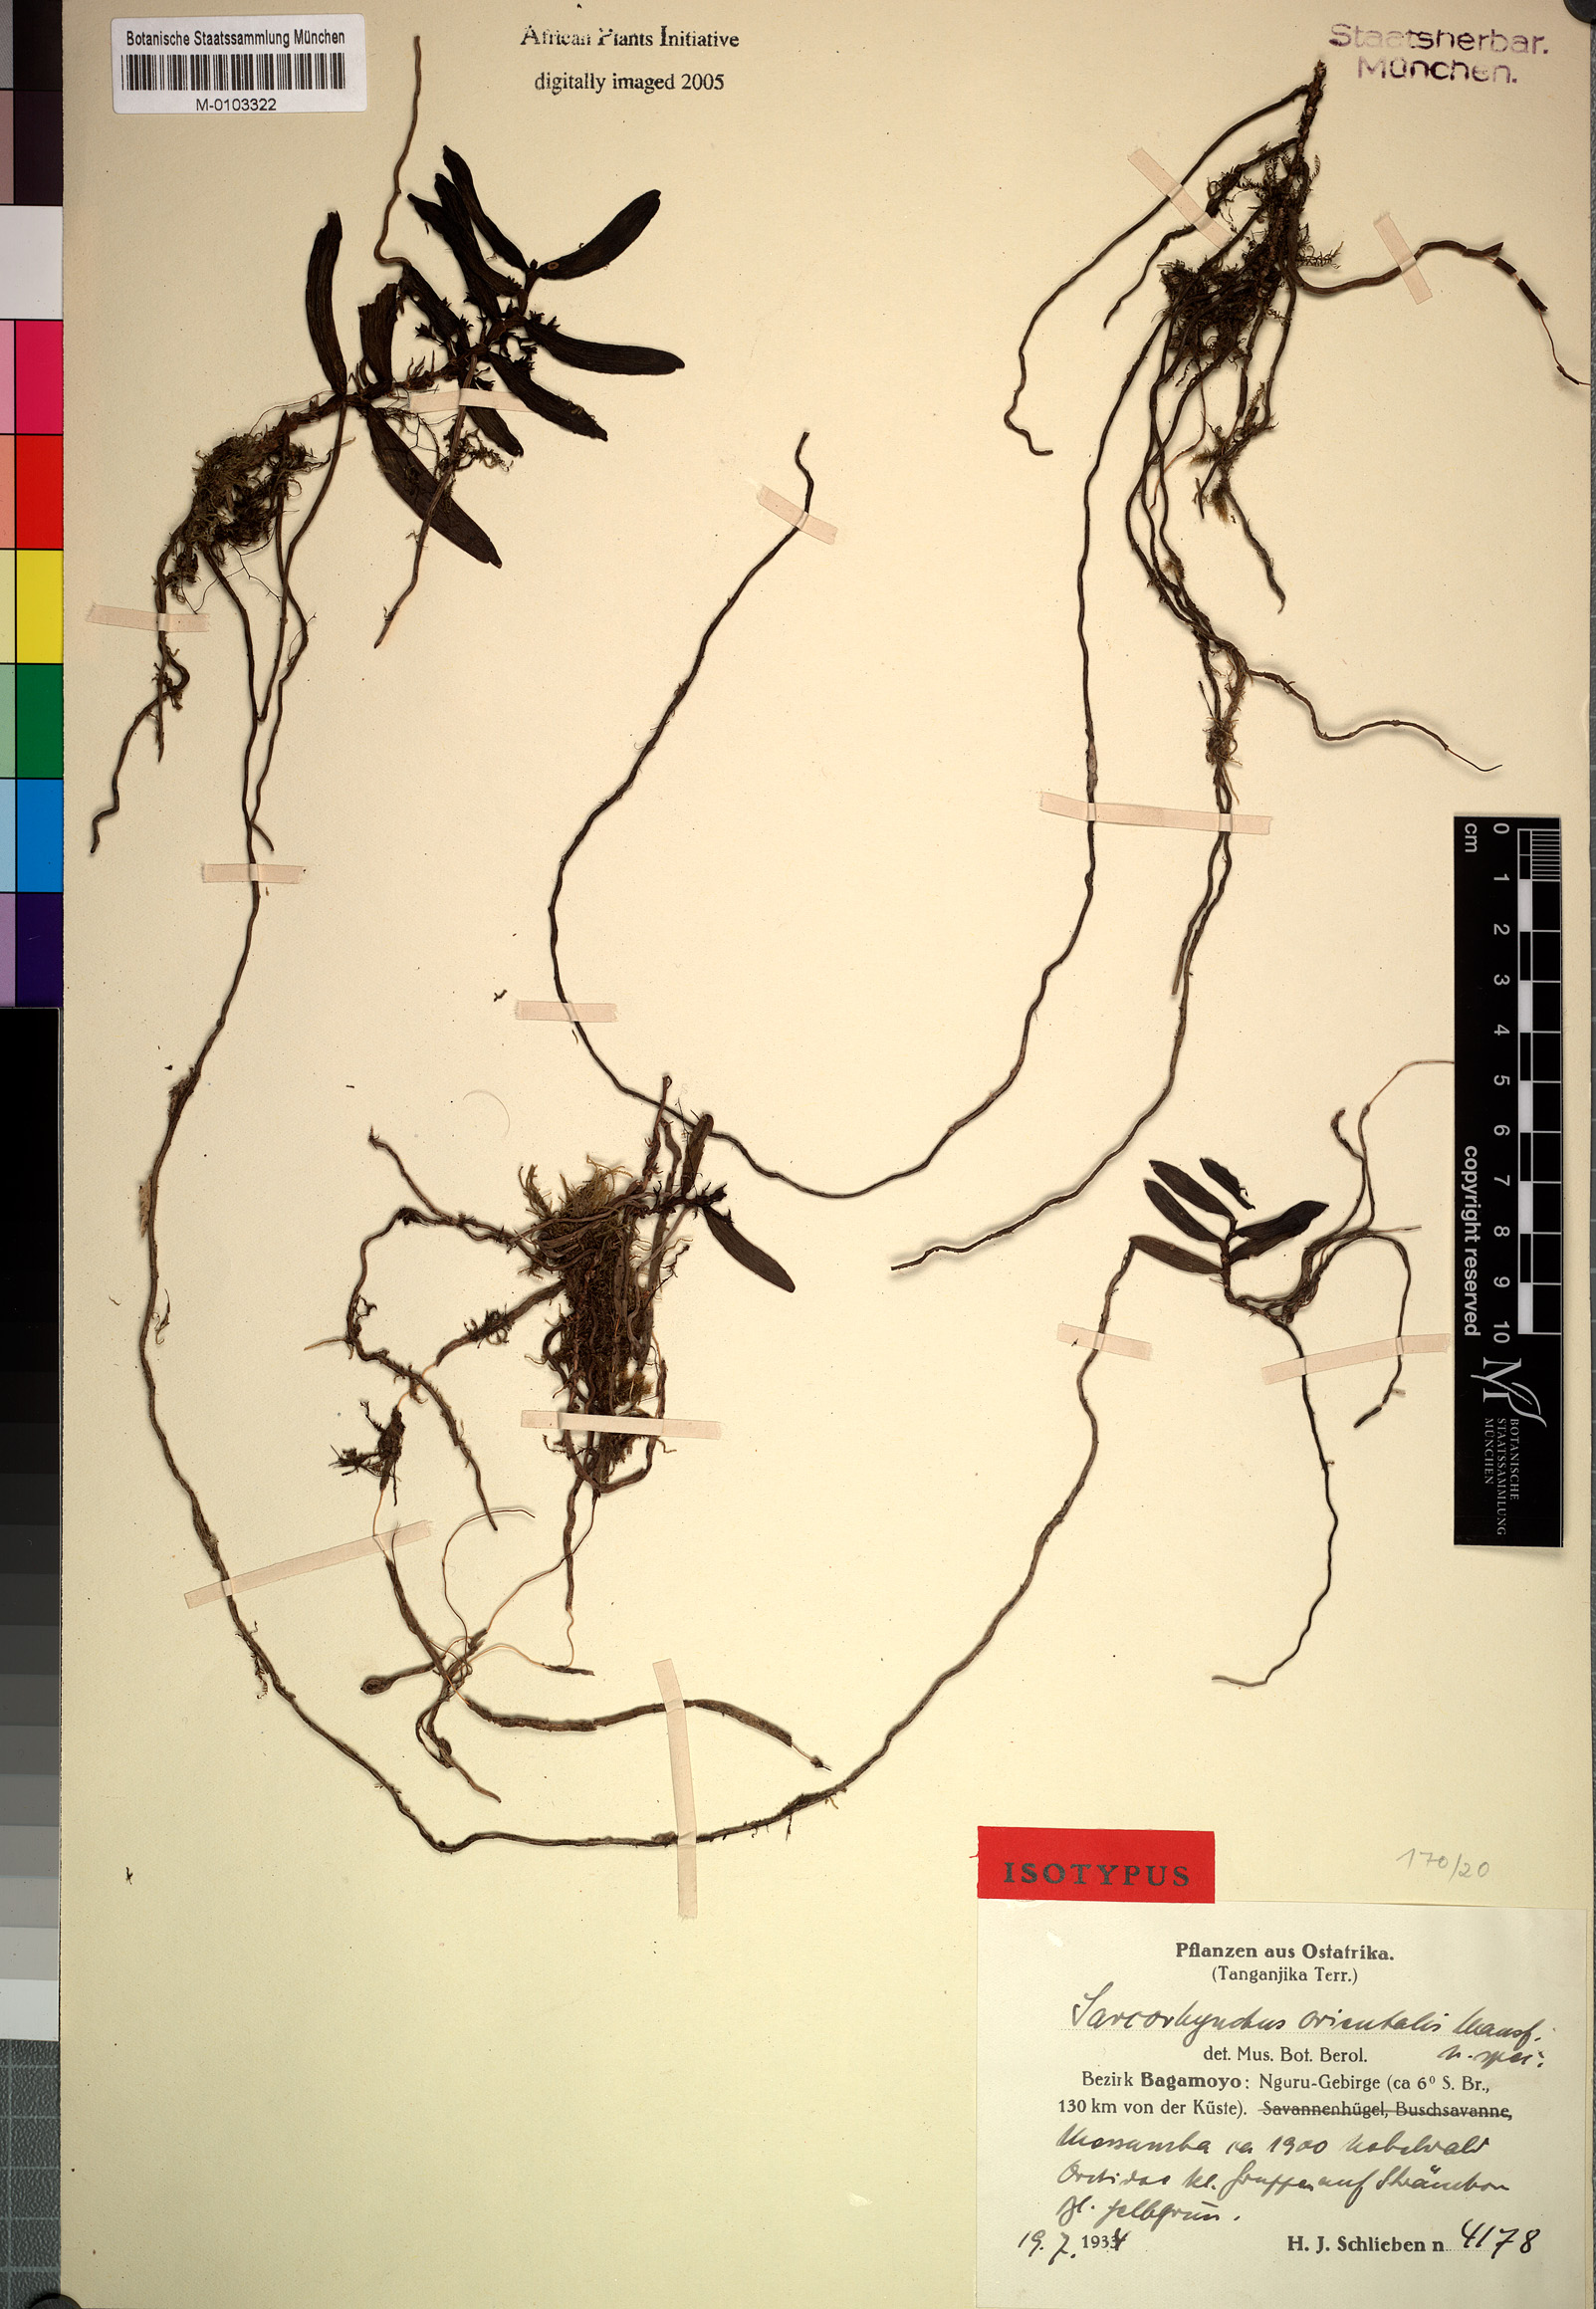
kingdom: Plantae
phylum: Tracheophyta
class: Liliopsida
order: Asparagales
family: Orchidaceae
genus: Rhipidoglossum
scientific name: Rhipidoglossum orientale
